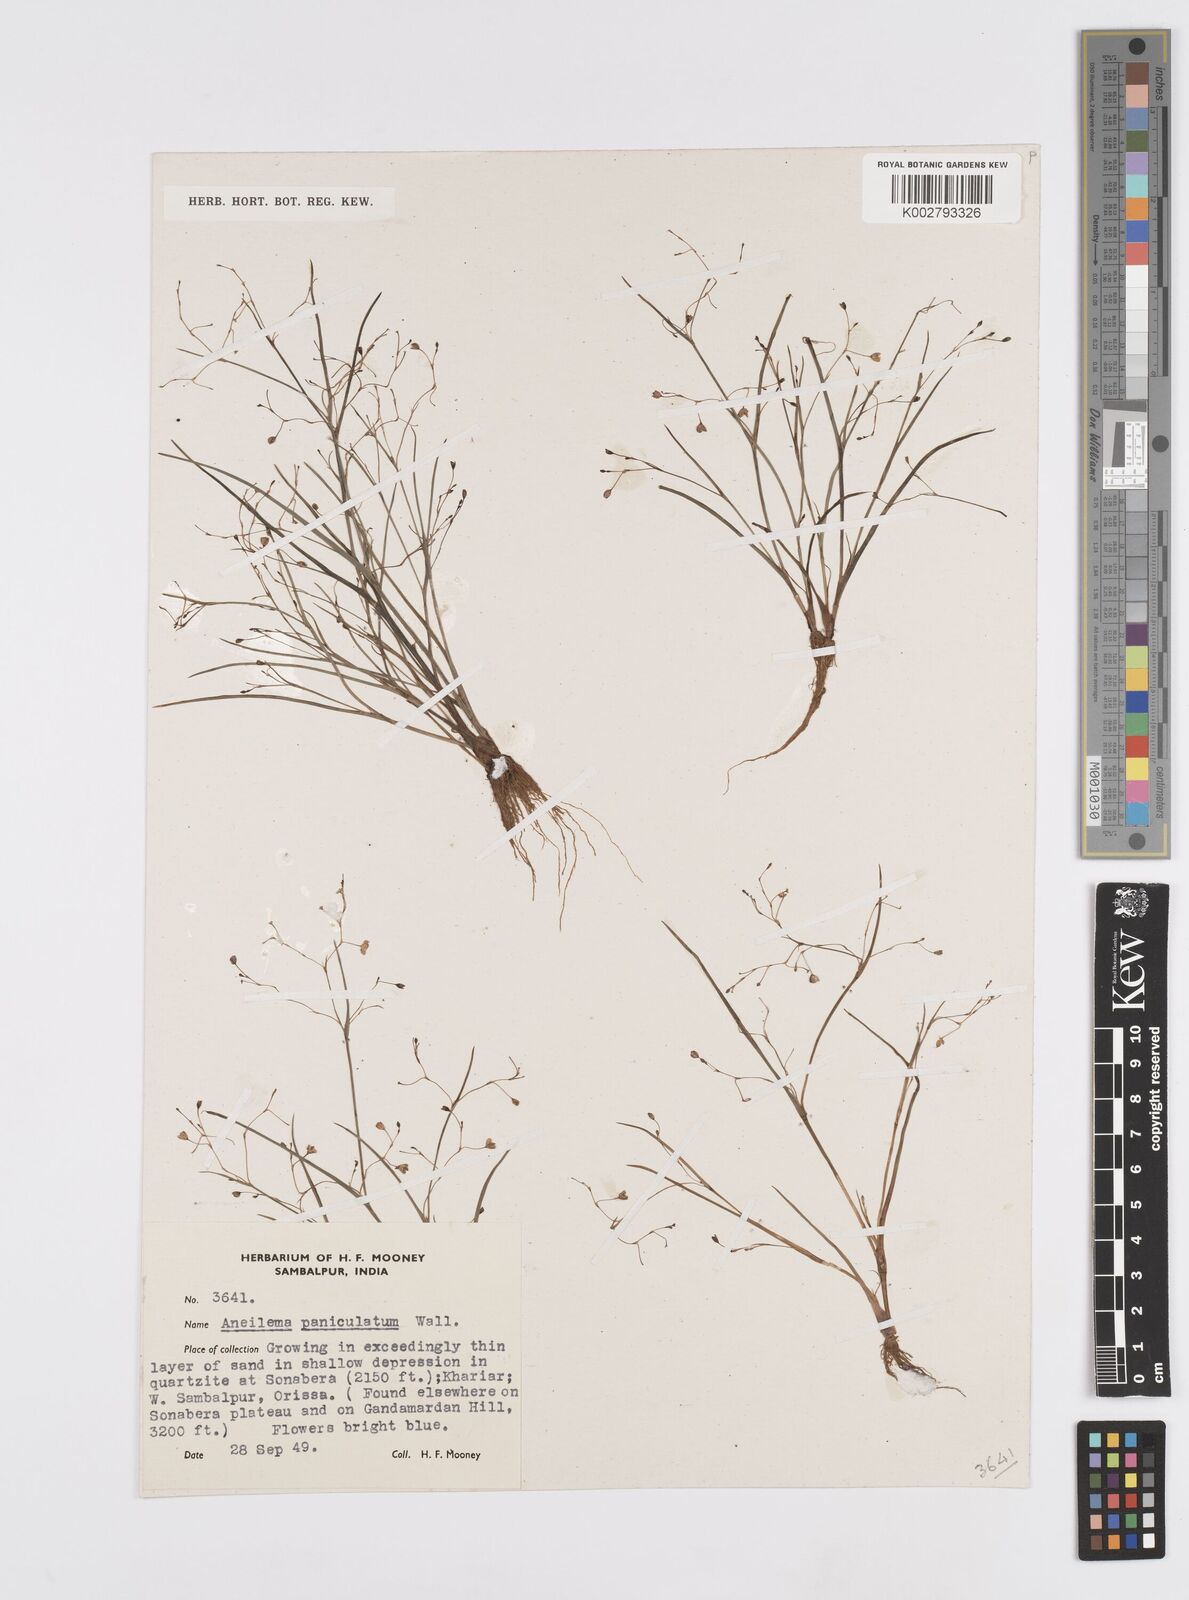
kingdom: Plantae
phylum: Tracheophyta
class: Liliopsida
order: Commelinales
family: Commelinaceae
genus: Murdannia
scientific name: Murdannia semiteres
